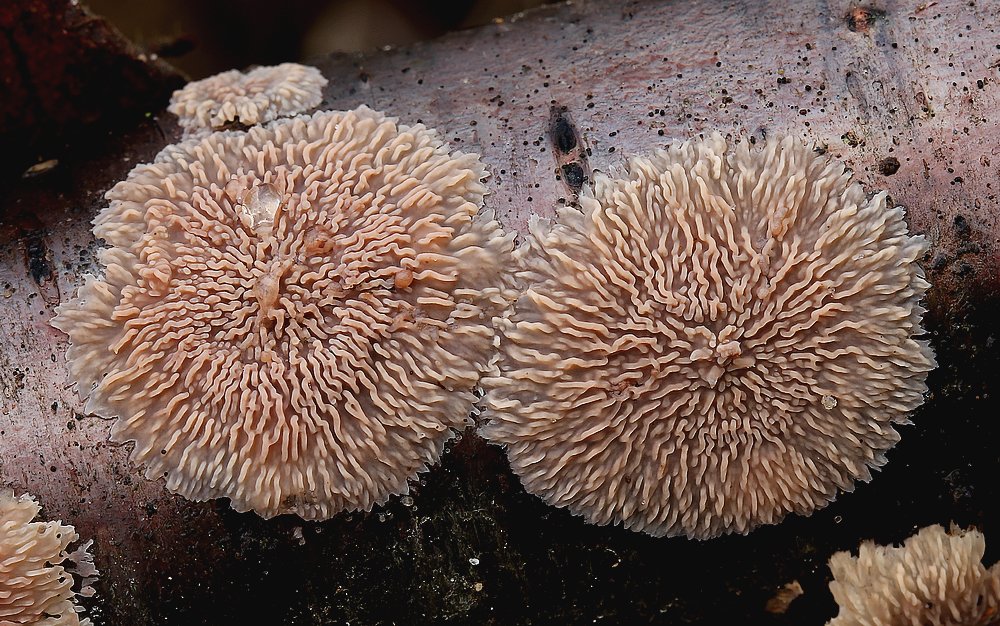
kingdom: Fungi
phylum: Basidiomycota
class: Agaricomycetes
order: Polyporales
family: Meruliaceae
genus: Phlebia
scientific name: Phlebia radiata
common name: stråle-åresvamp
